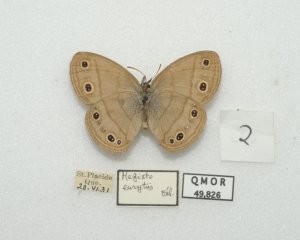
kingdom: Animalia
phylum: Arthropoda
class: Insecta
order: Lepidoptera
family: Nymphalidae
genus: Euptychia
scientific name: Euptychia cymela
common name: Little Wood Satyr
